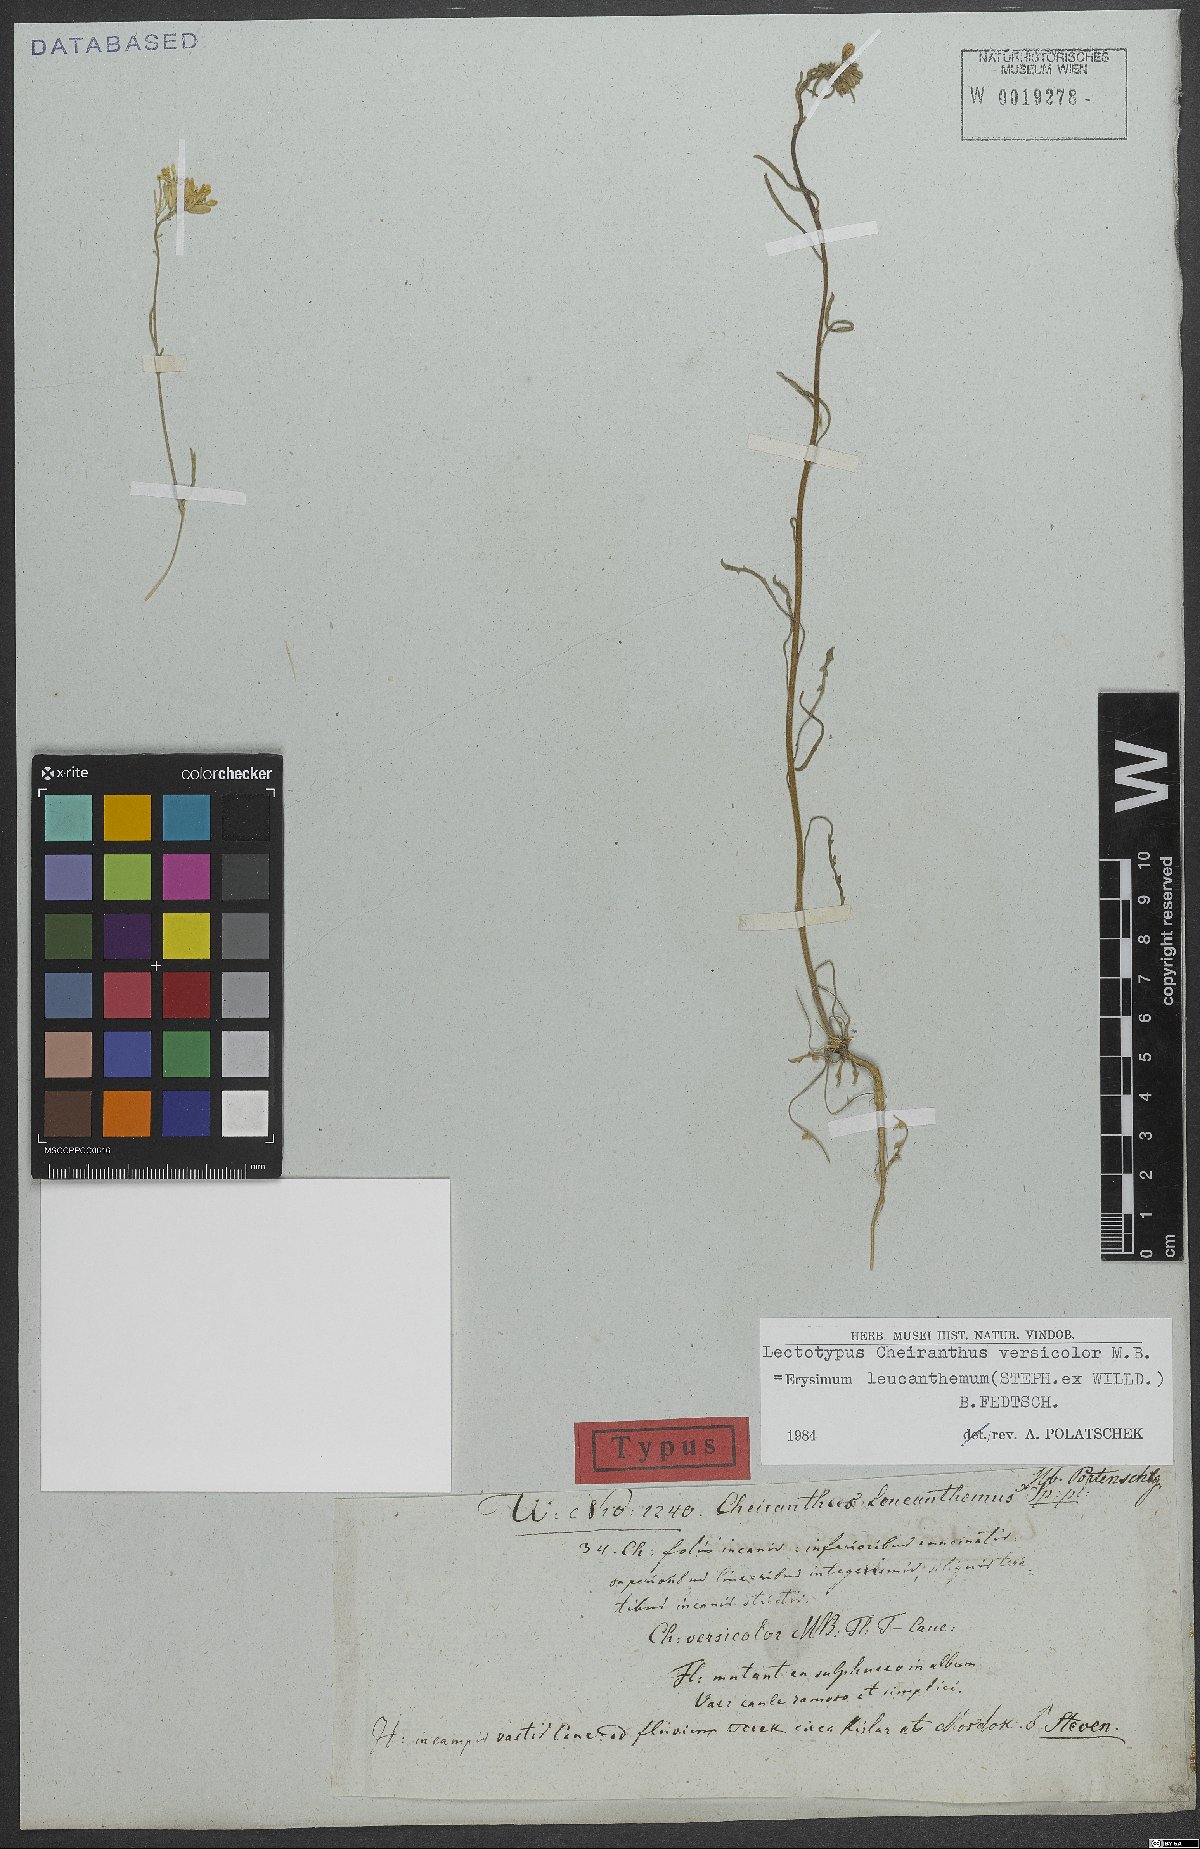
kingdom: Plantae
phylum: Tracheophyta
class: Magnoliopsida
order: Brassicales
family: Brassicaceae
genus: Erysimum
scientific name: Erysimum leucanthemum
